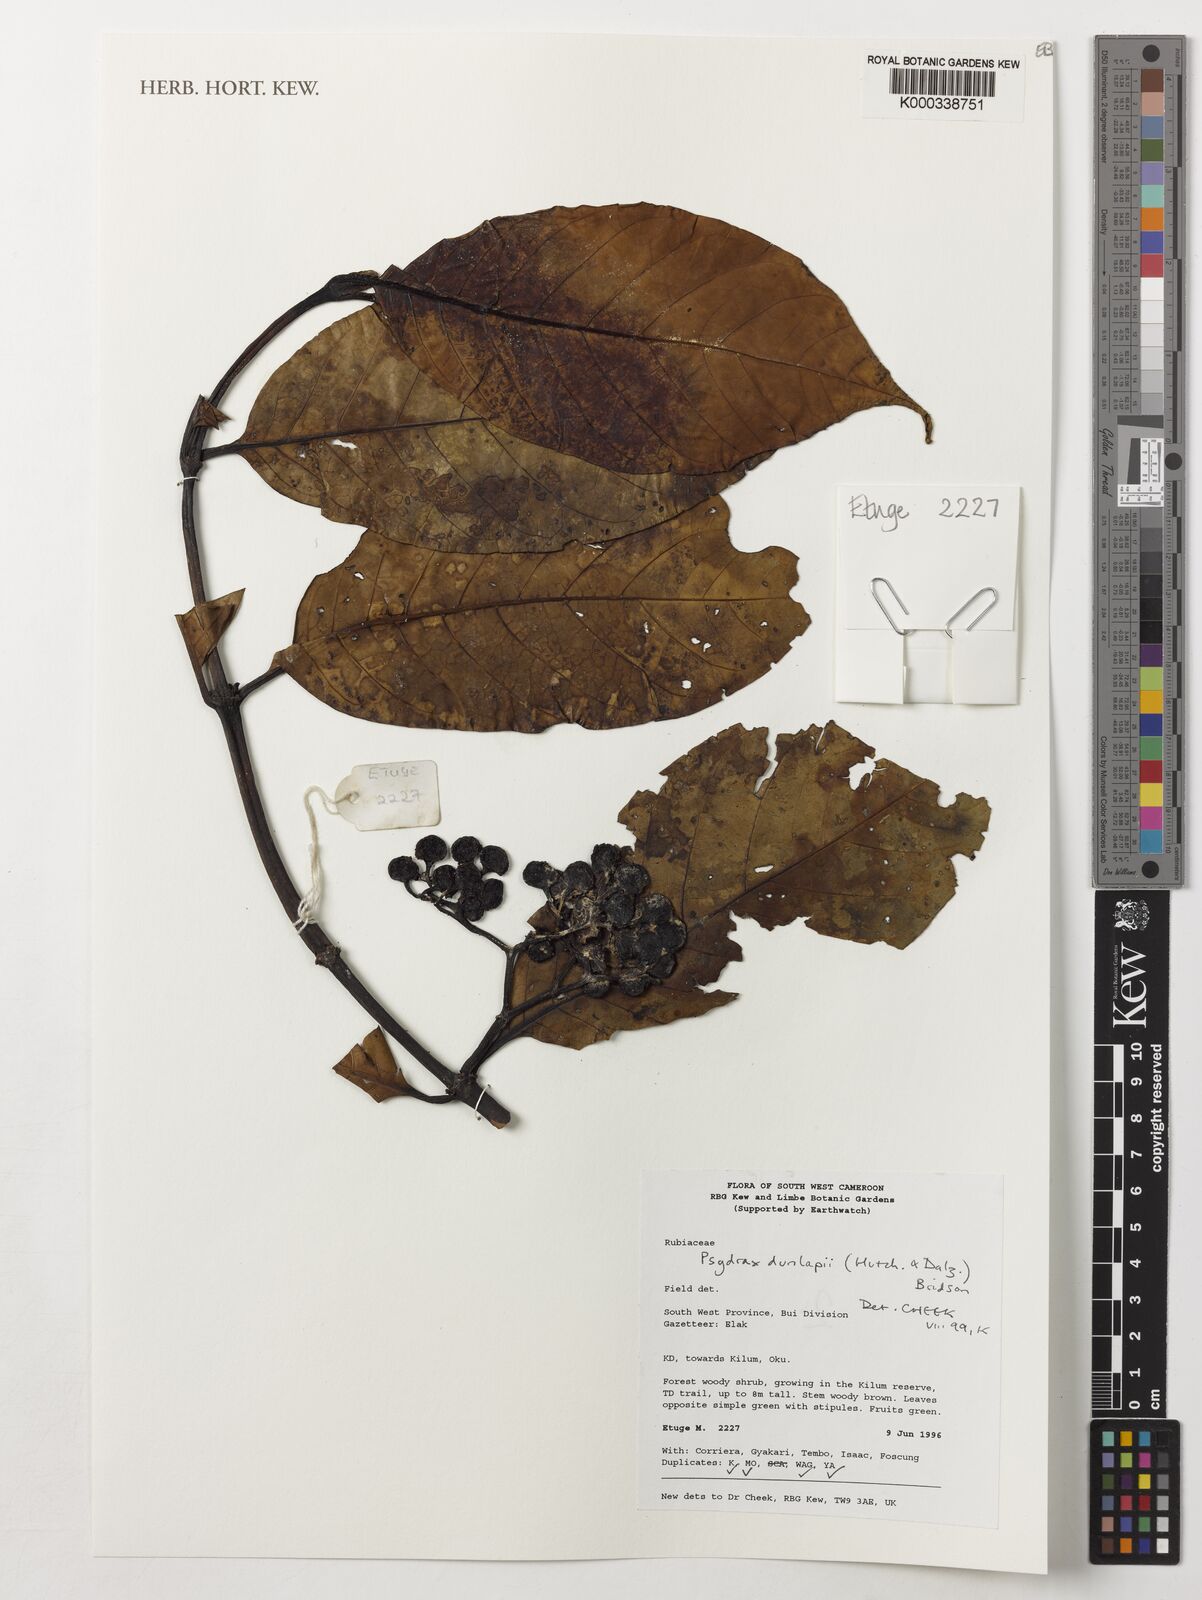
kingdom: Plantae
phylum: Tracheophyta
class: Magnoliopsida
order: Gentianales
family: Rubiaceae
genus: Psydrax
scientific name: Psydrax dunlapii
